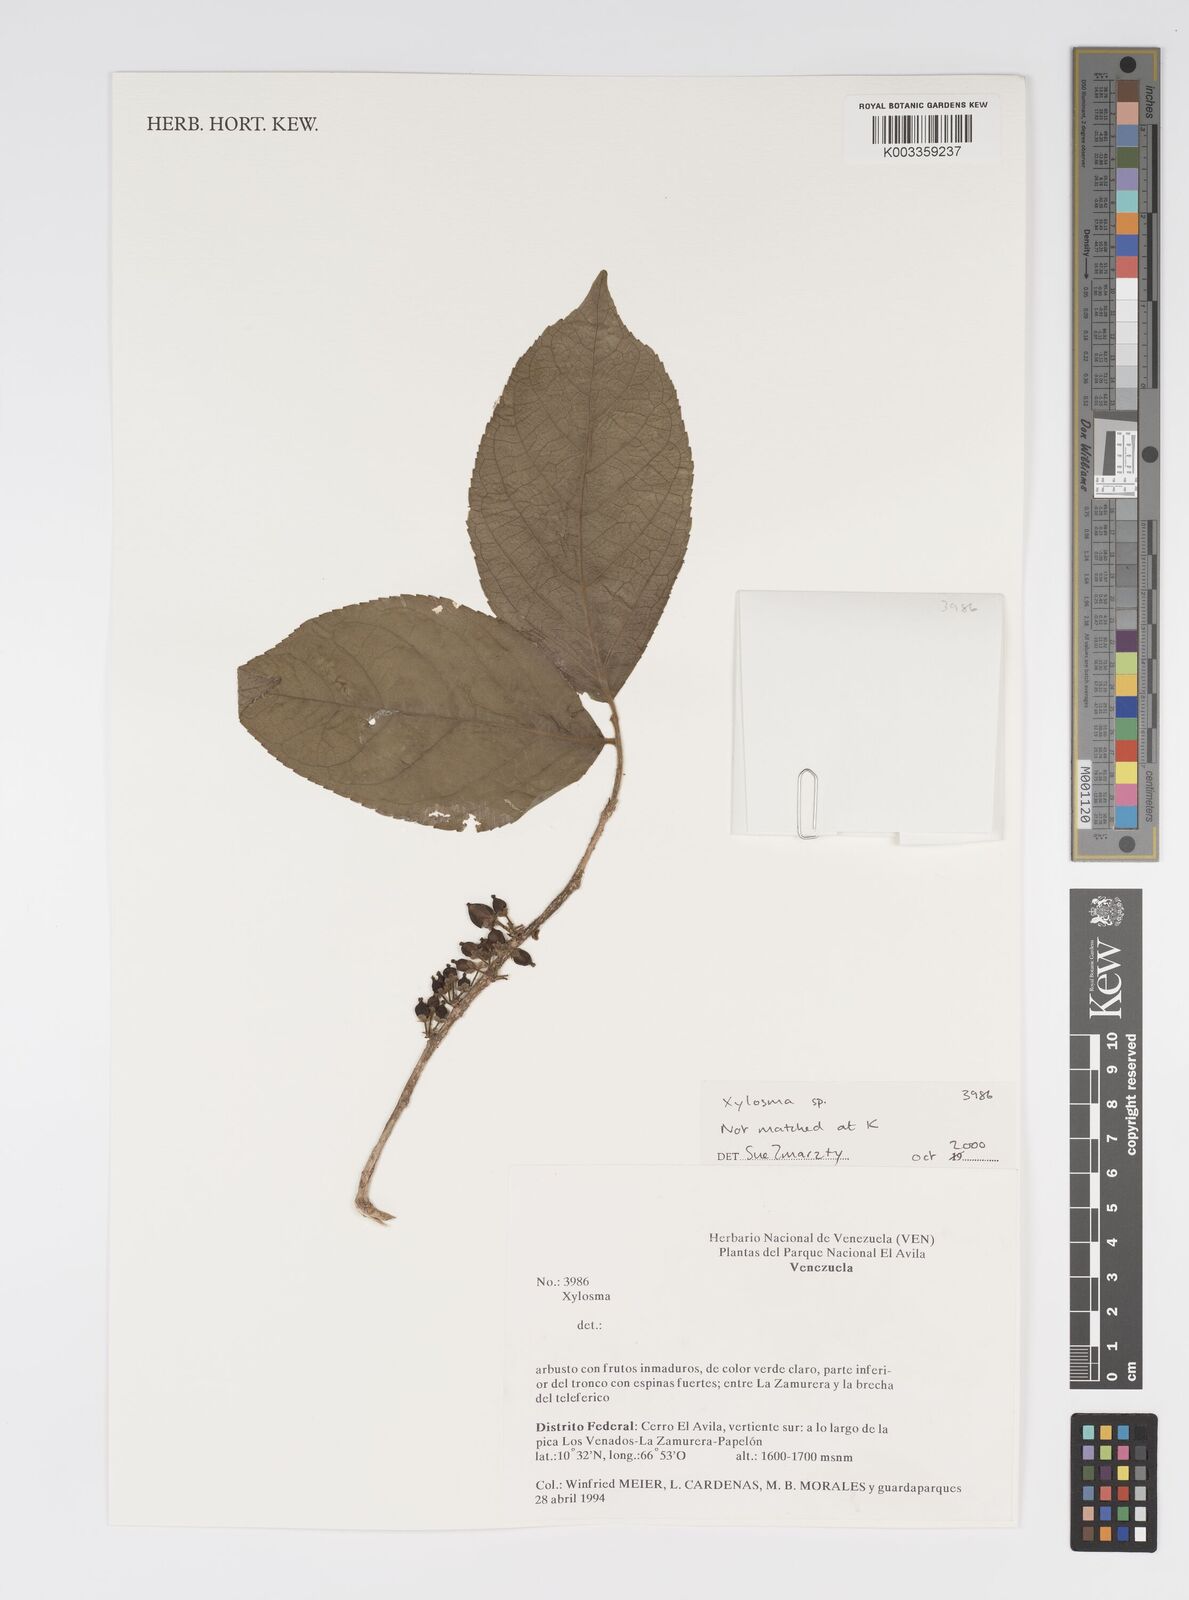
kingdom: Plantae
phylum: Tracheophyta
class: Magnoliopsida
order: Malpighiales
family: Salicaceae
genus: Xylosma
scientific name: Xylosma
